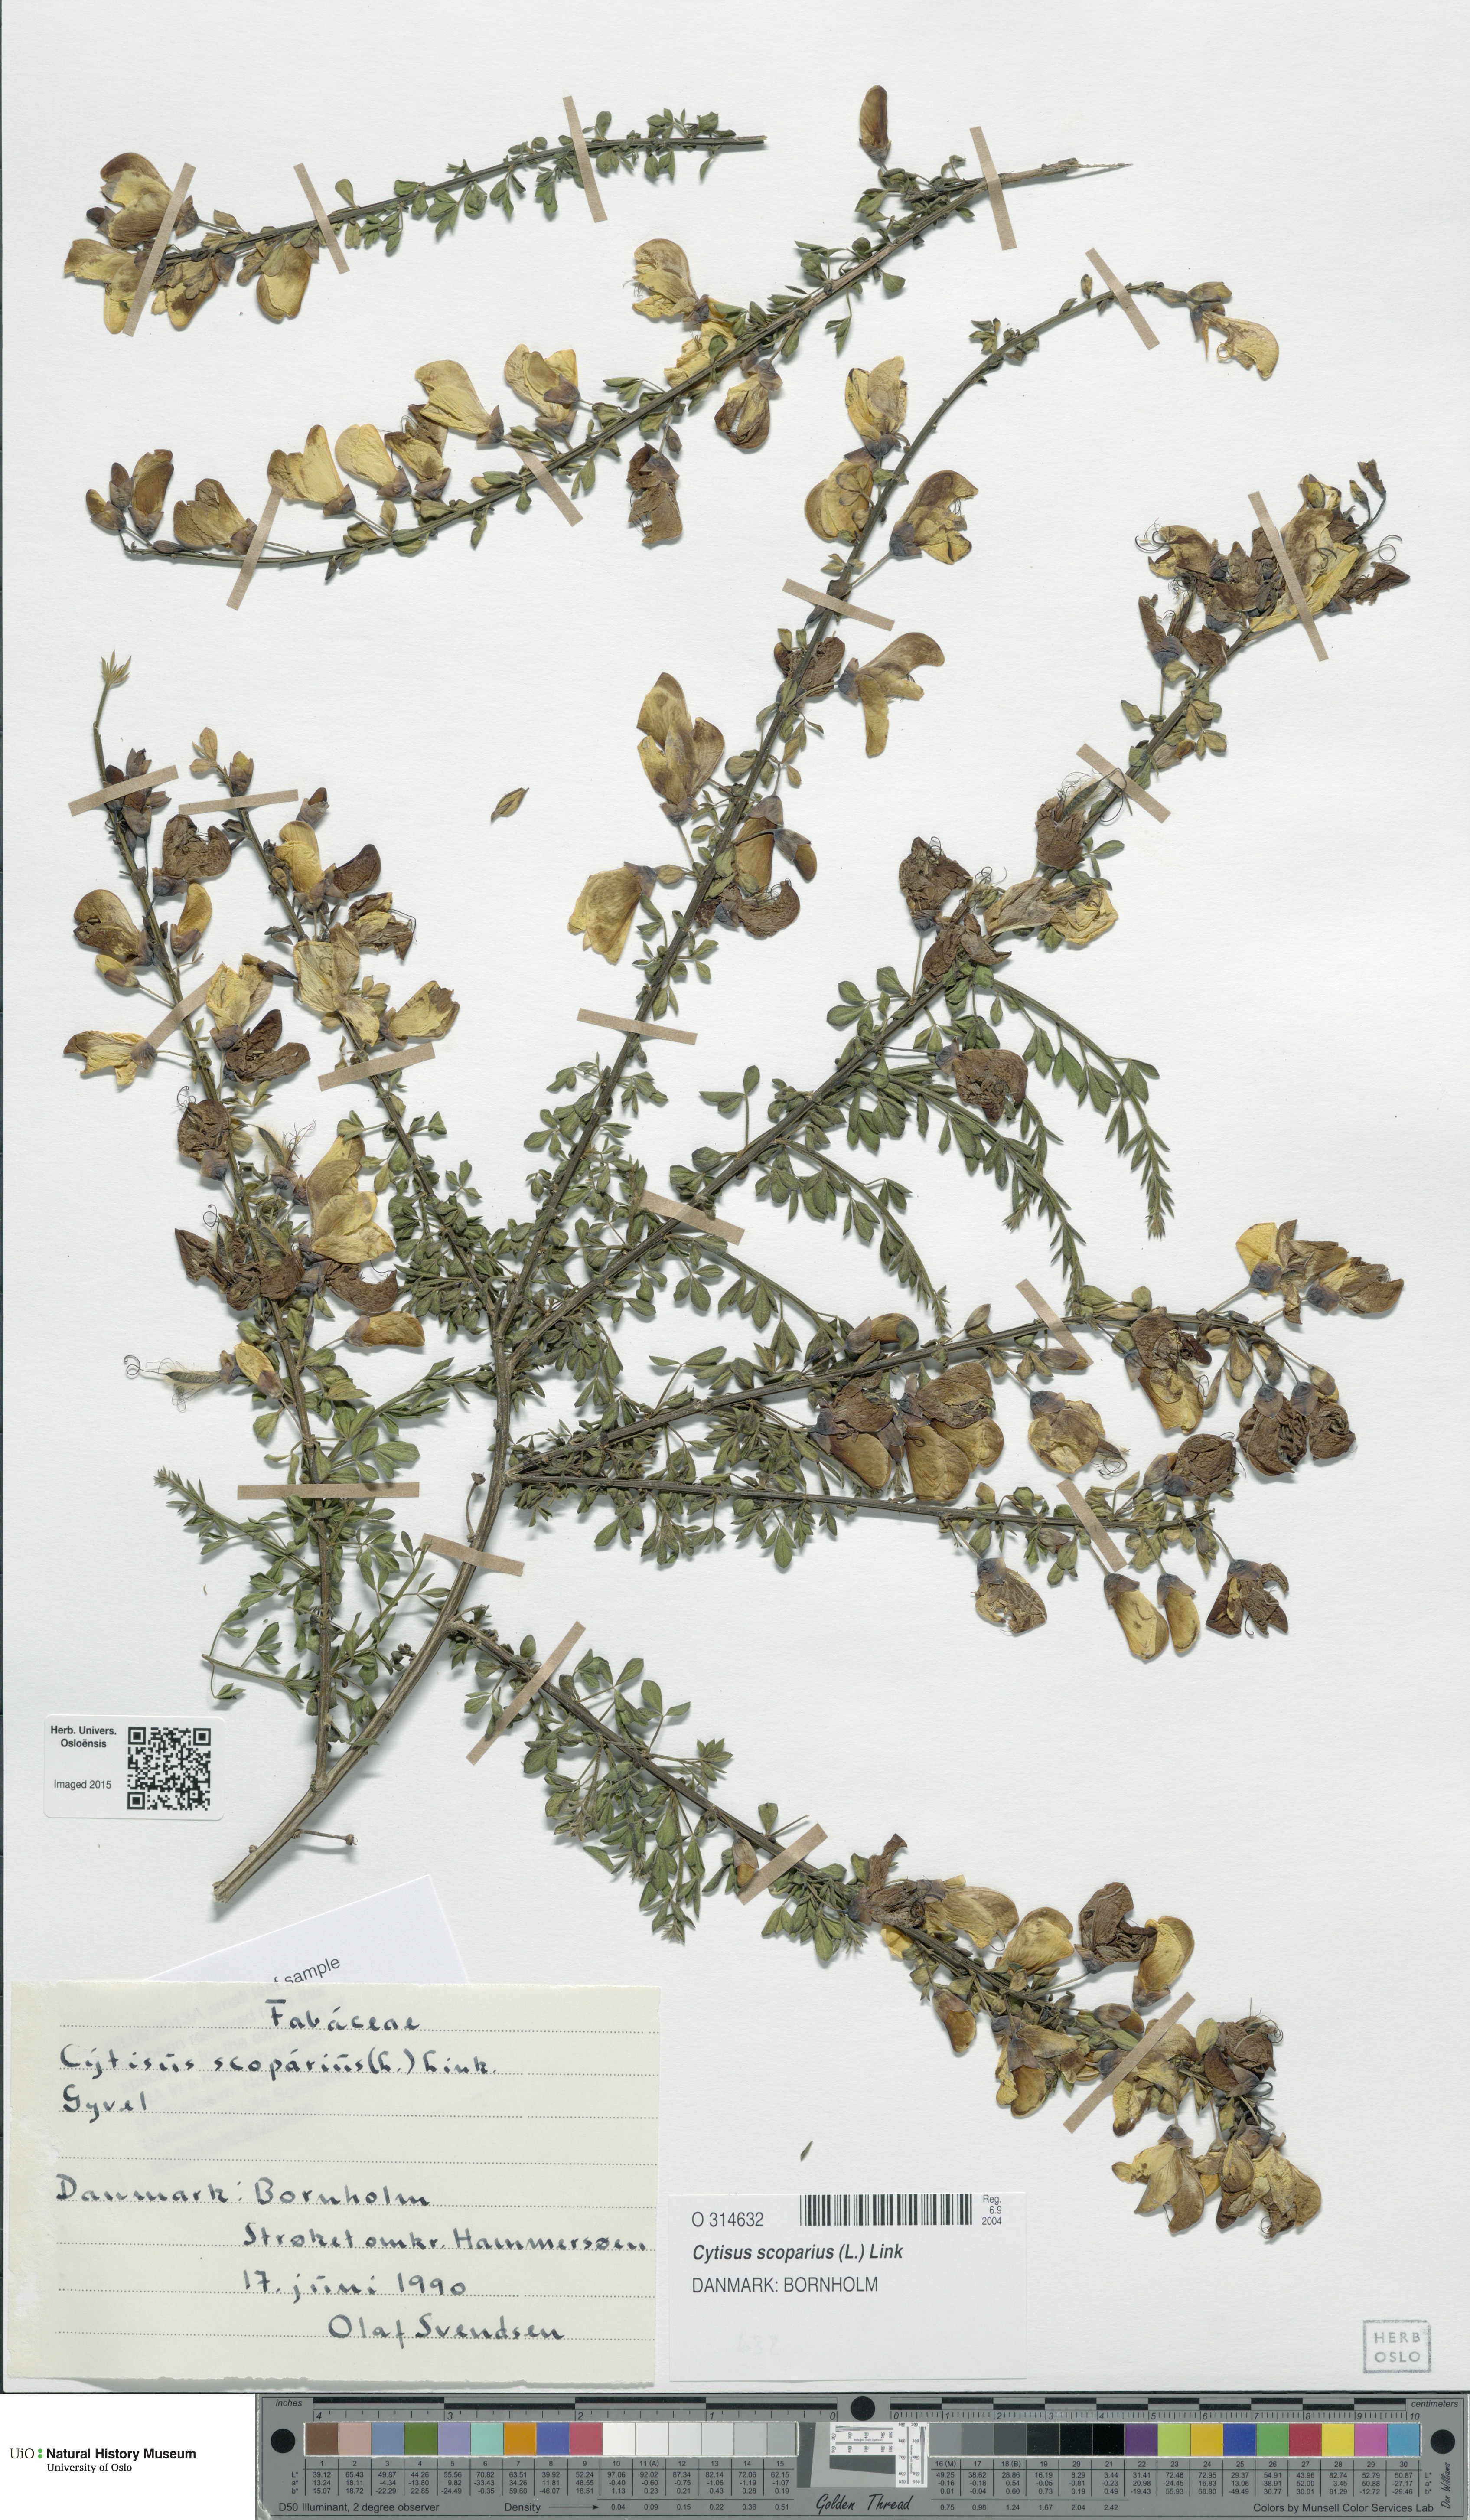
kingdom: Plantae
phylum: Tracheophyta
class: Magnoliopsida
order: Fabales
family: Fabaceae
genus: Cytisus
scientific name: Cytisus scoparius
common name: Scotch broom
